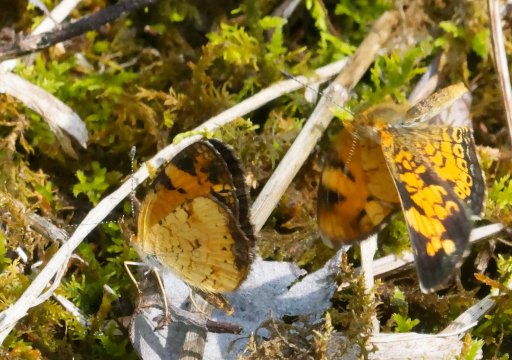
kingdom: Animalia
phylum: Arthropoda
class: Insecta
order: Lepidoptera
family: Nymphalidae
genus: Phyciodes
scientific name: Phyciodes tharos
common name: Pearl Crescent
